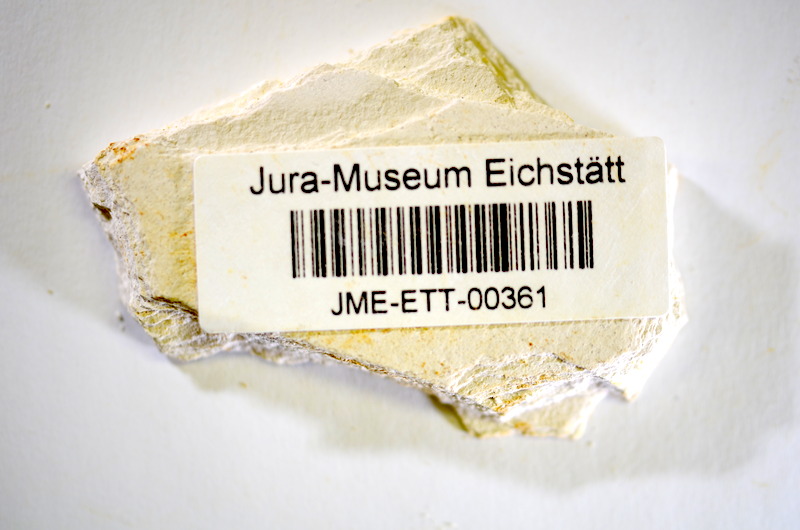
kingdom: Animalia
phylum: Chordata
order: Salmoniformes
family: Orthogonikleithridae
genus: Orthogonikleithrus
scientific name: Orthogonikleithrus hoelli
